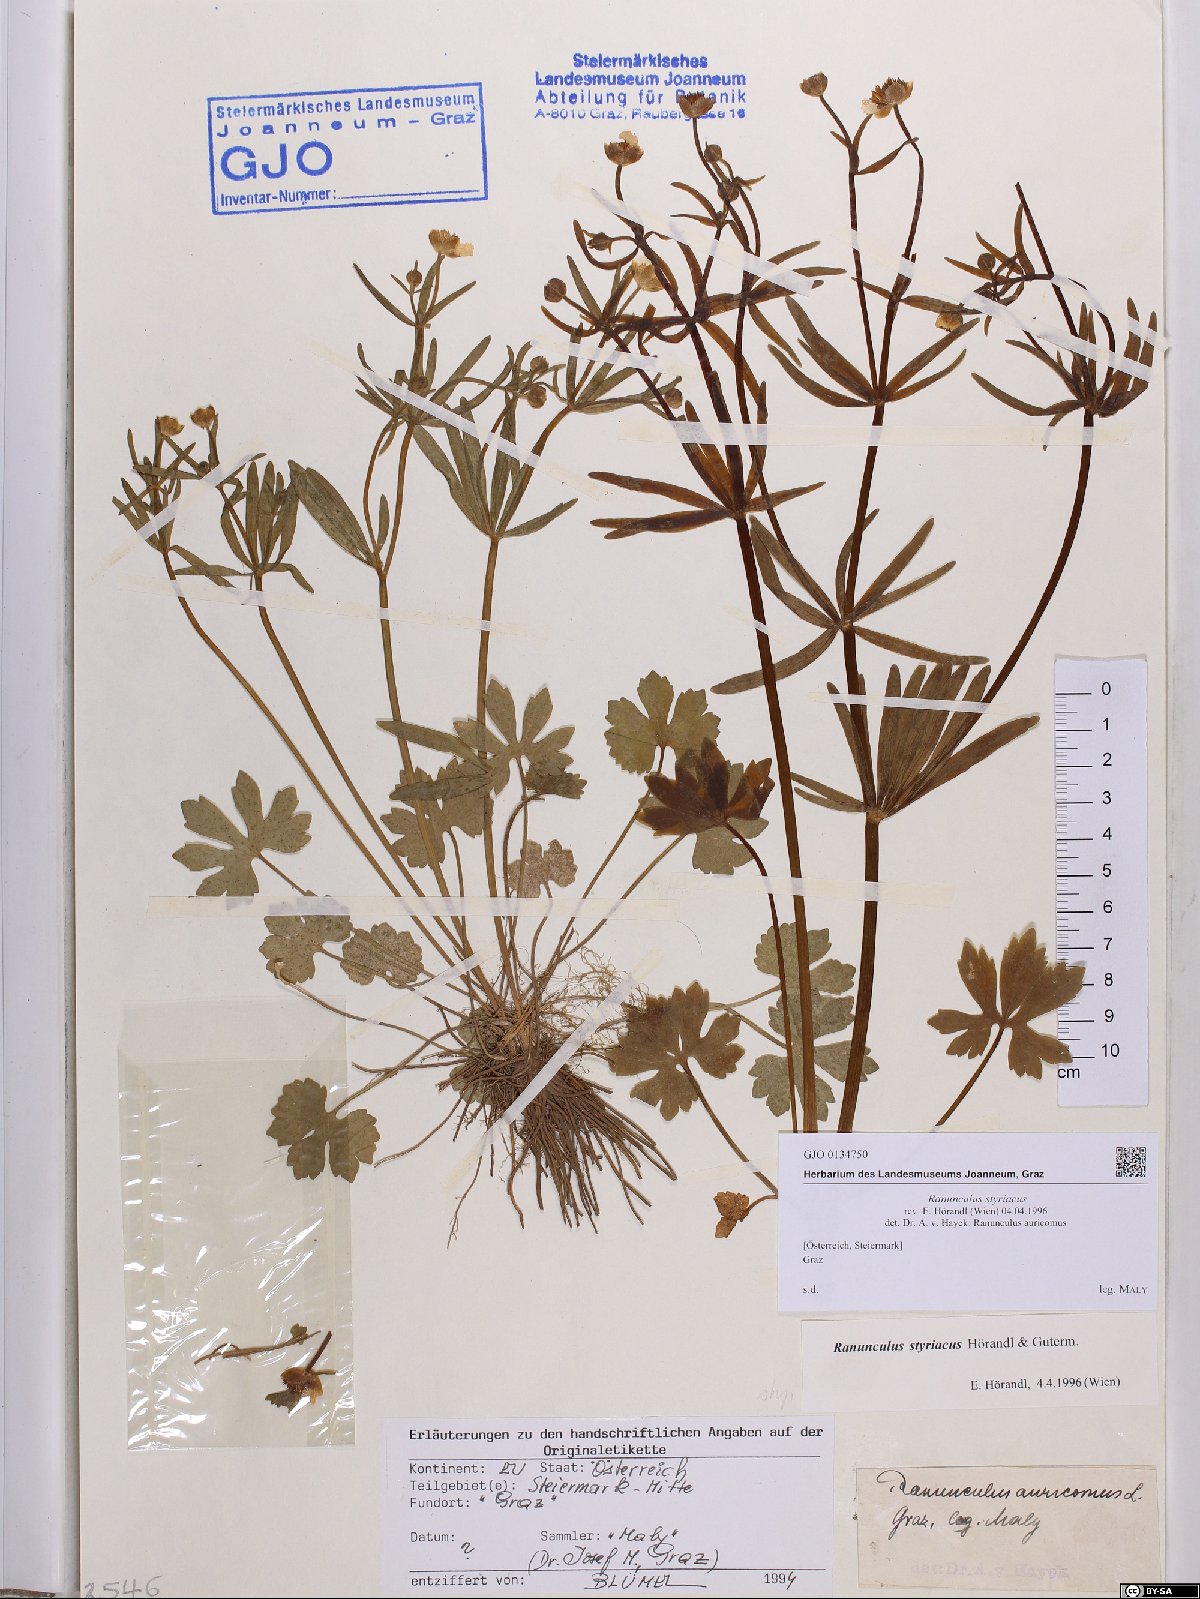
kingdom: Plantae
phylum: Tracheophyta
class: Magnoliopsida
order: Ranunculales
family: Ranunculaceae
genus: Ranunculus
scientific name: Ranunculus styriacus
